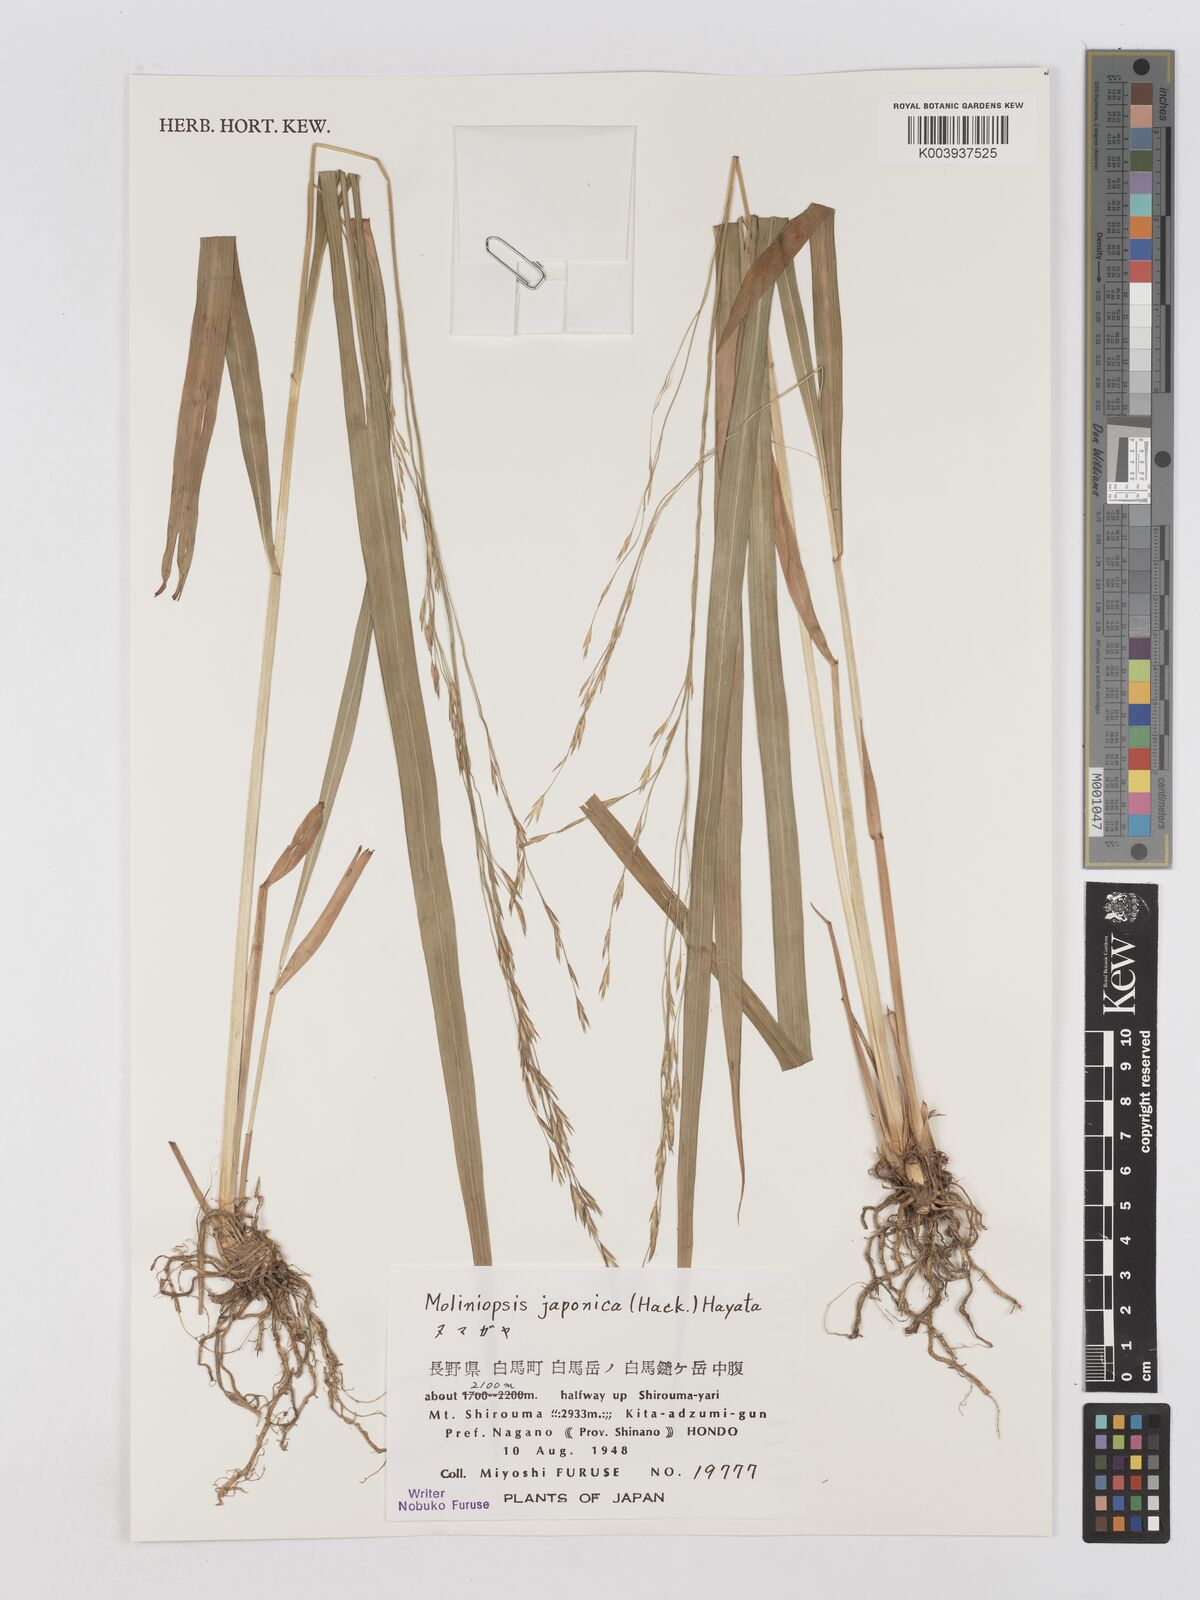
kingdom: Plantae
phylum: Tracheophyta
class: Liliopsida
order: Poales
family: Poaceae
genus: Moliniopsis
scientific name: Moliniopsis japonica
